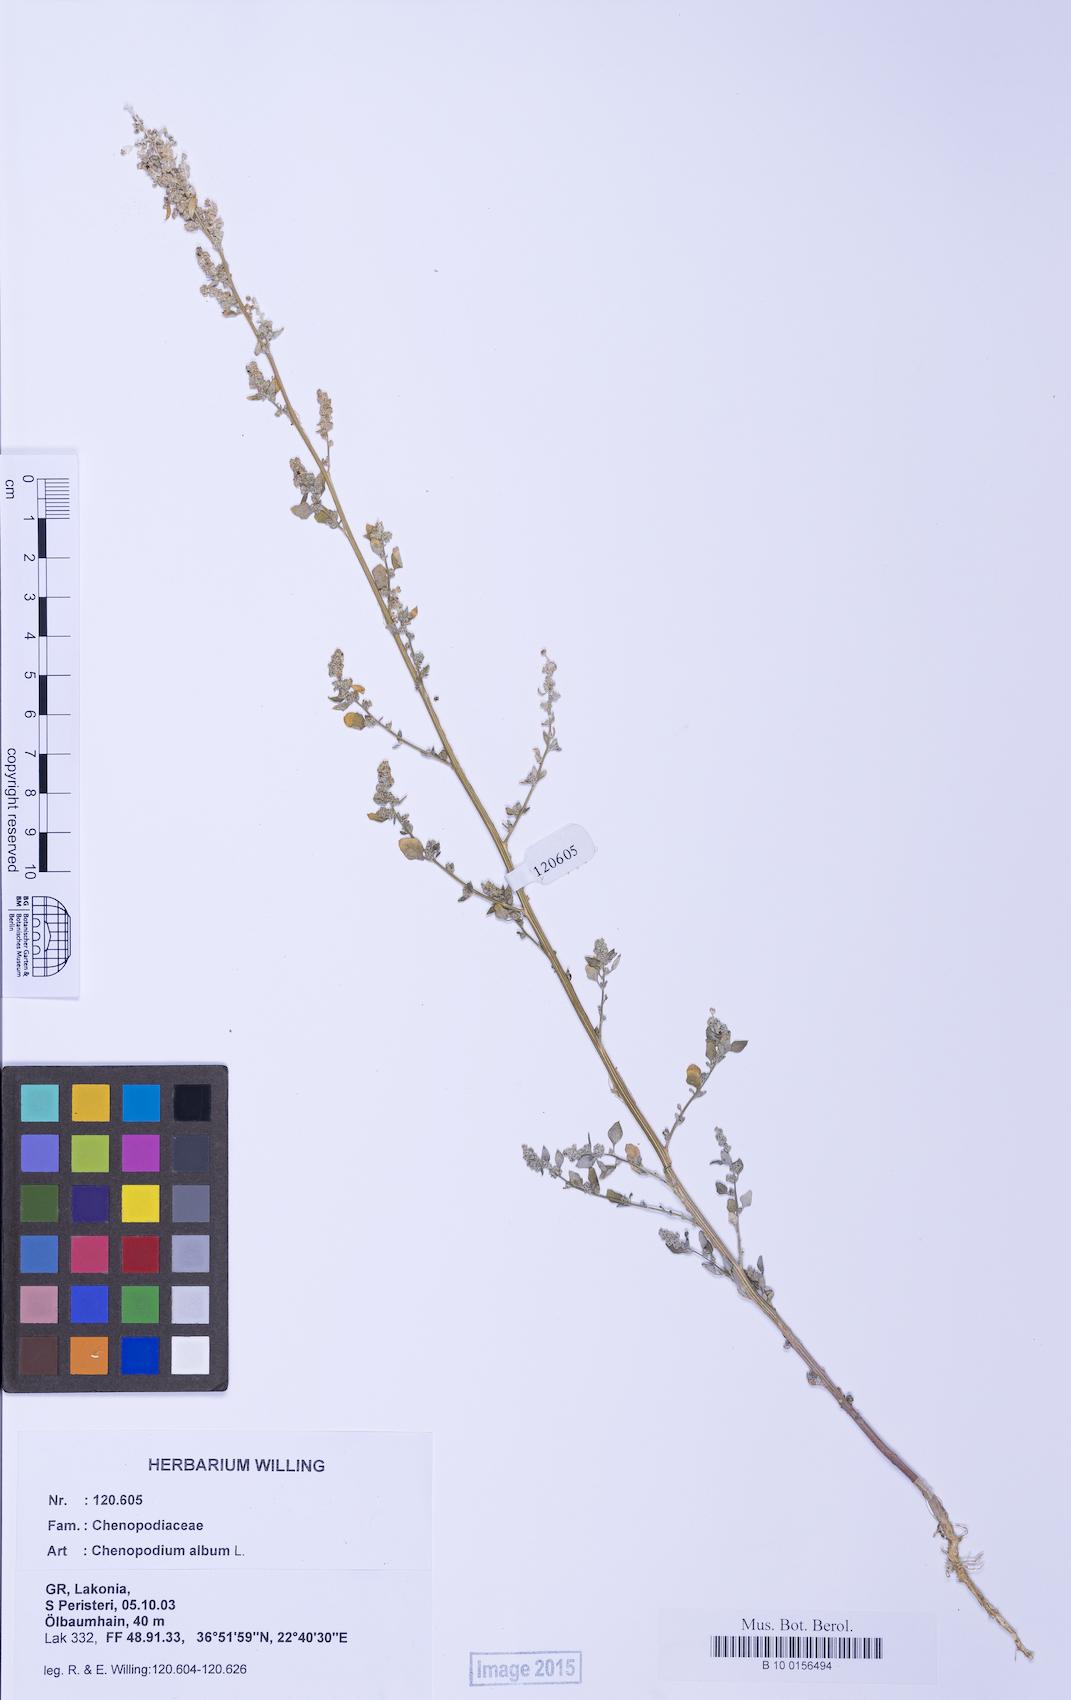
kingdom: Plantae
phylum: Tracheophyta
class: Magnoliopsida
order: Caryophyllales
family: Amaranthaceae
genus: Chenopodium
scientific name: Chenopodium opulifolium
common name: Grey goosefoot
